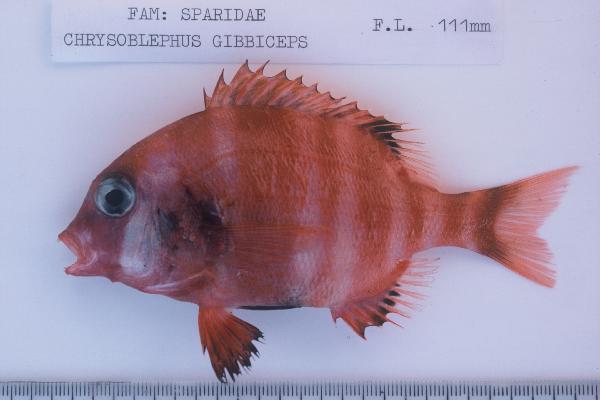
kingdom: Animalia
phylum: Chordata
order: Perciformes
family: Sparidae
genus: Chrysoblephus
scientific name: Chrysoblephus gibbiceps
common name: Red stumpnose
